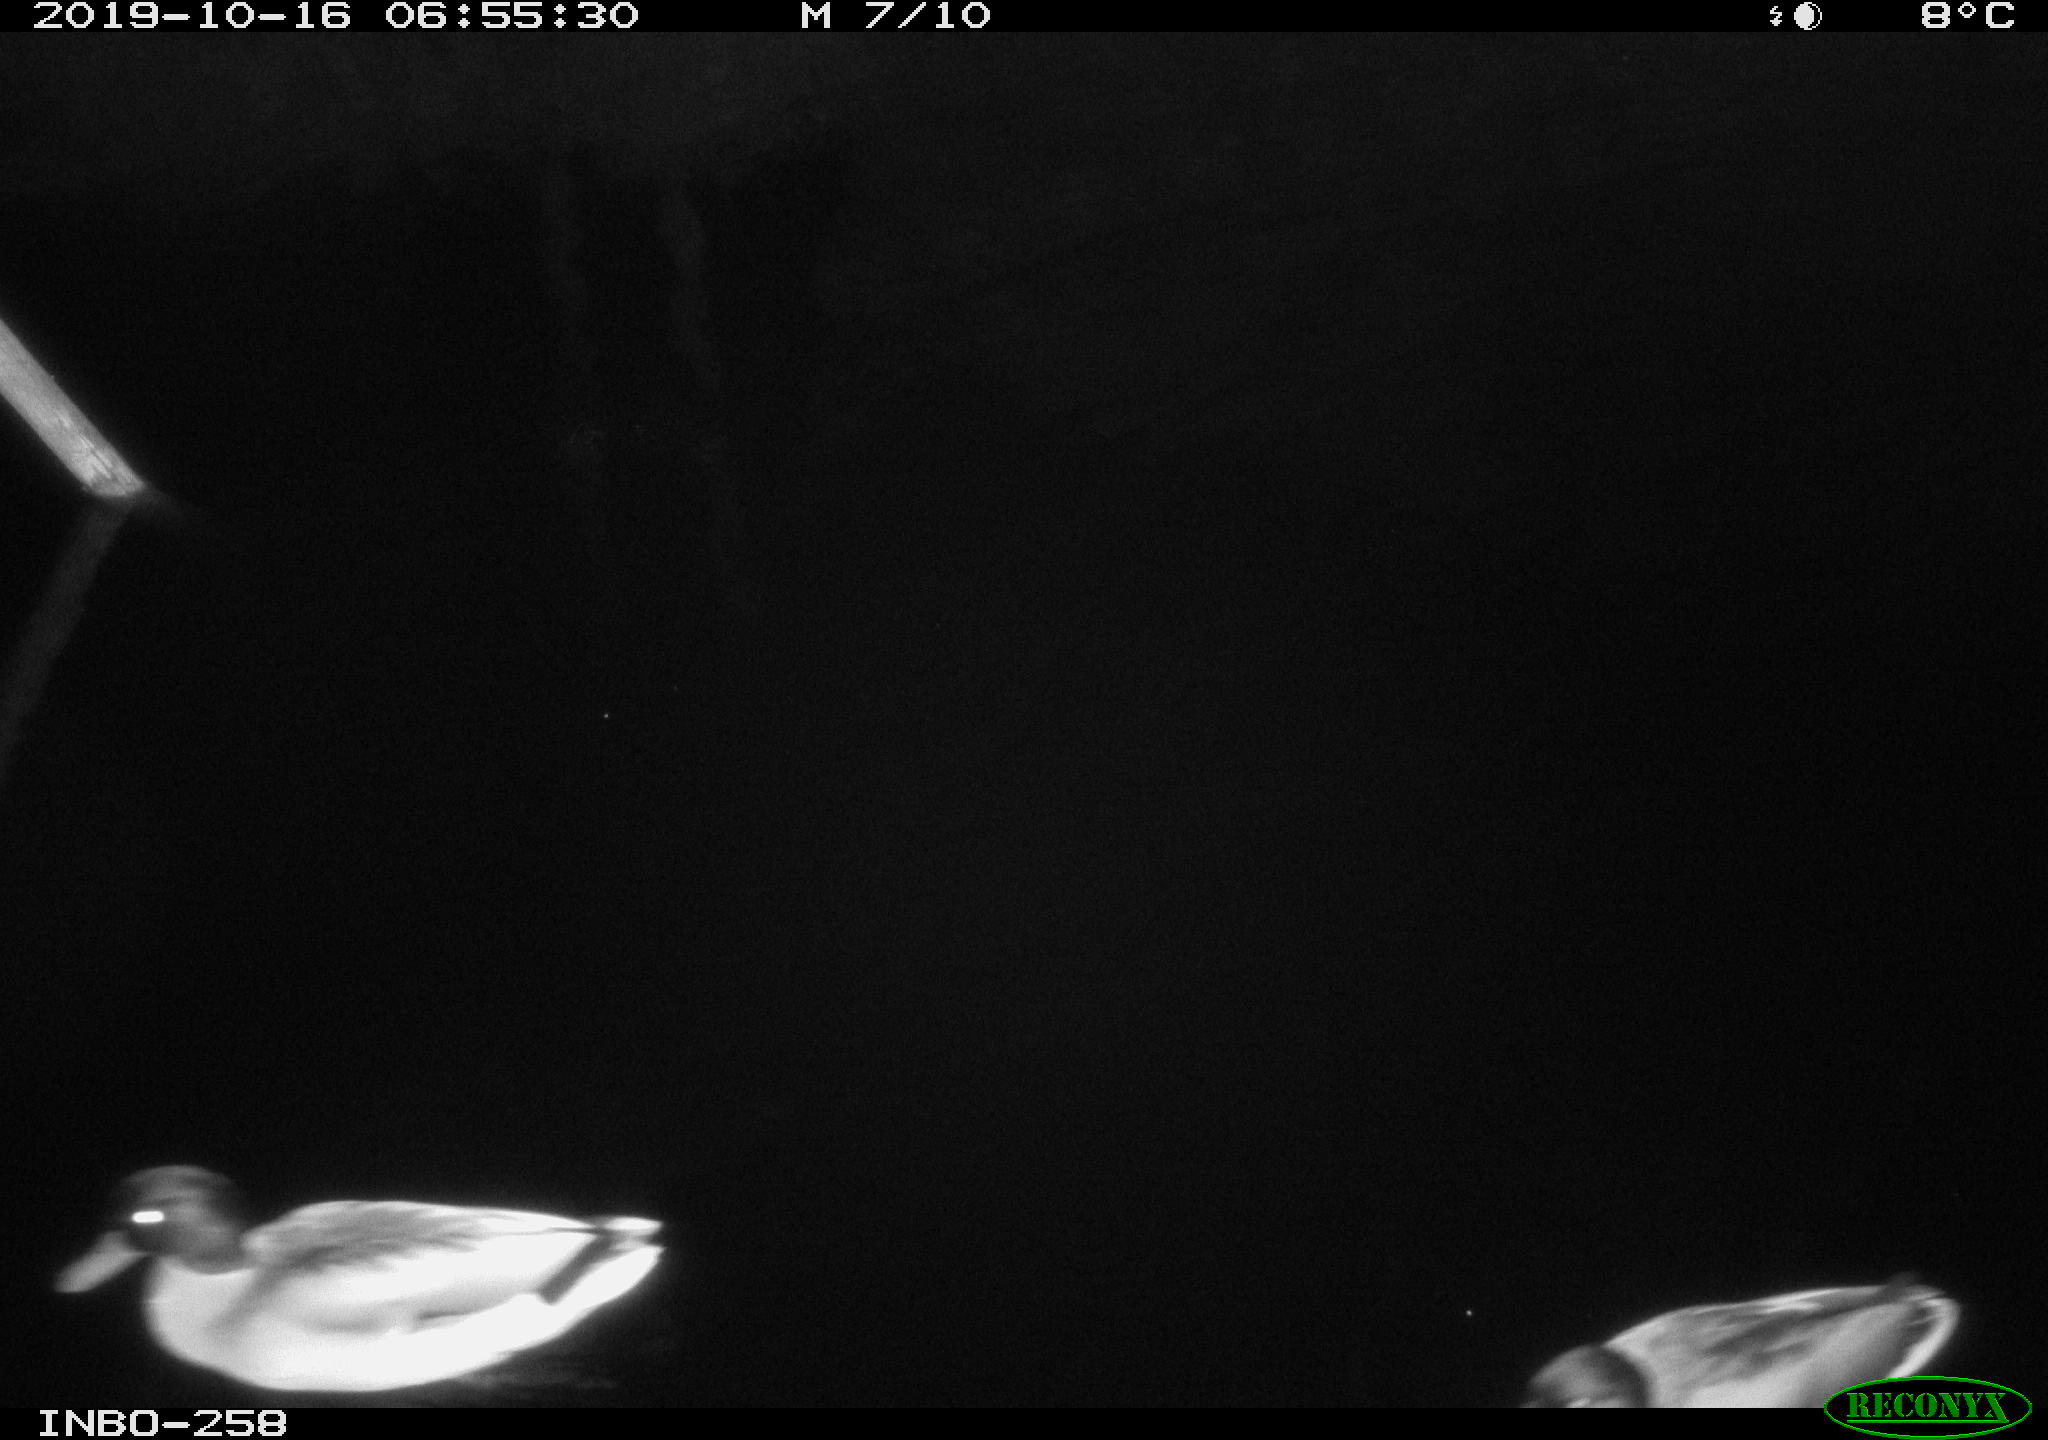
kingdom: Animalia
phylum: Chordata
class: Aves
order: Anseriformes
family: Anatidae
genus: Anas
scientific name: Anas platyrhynchos
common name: Mallard
